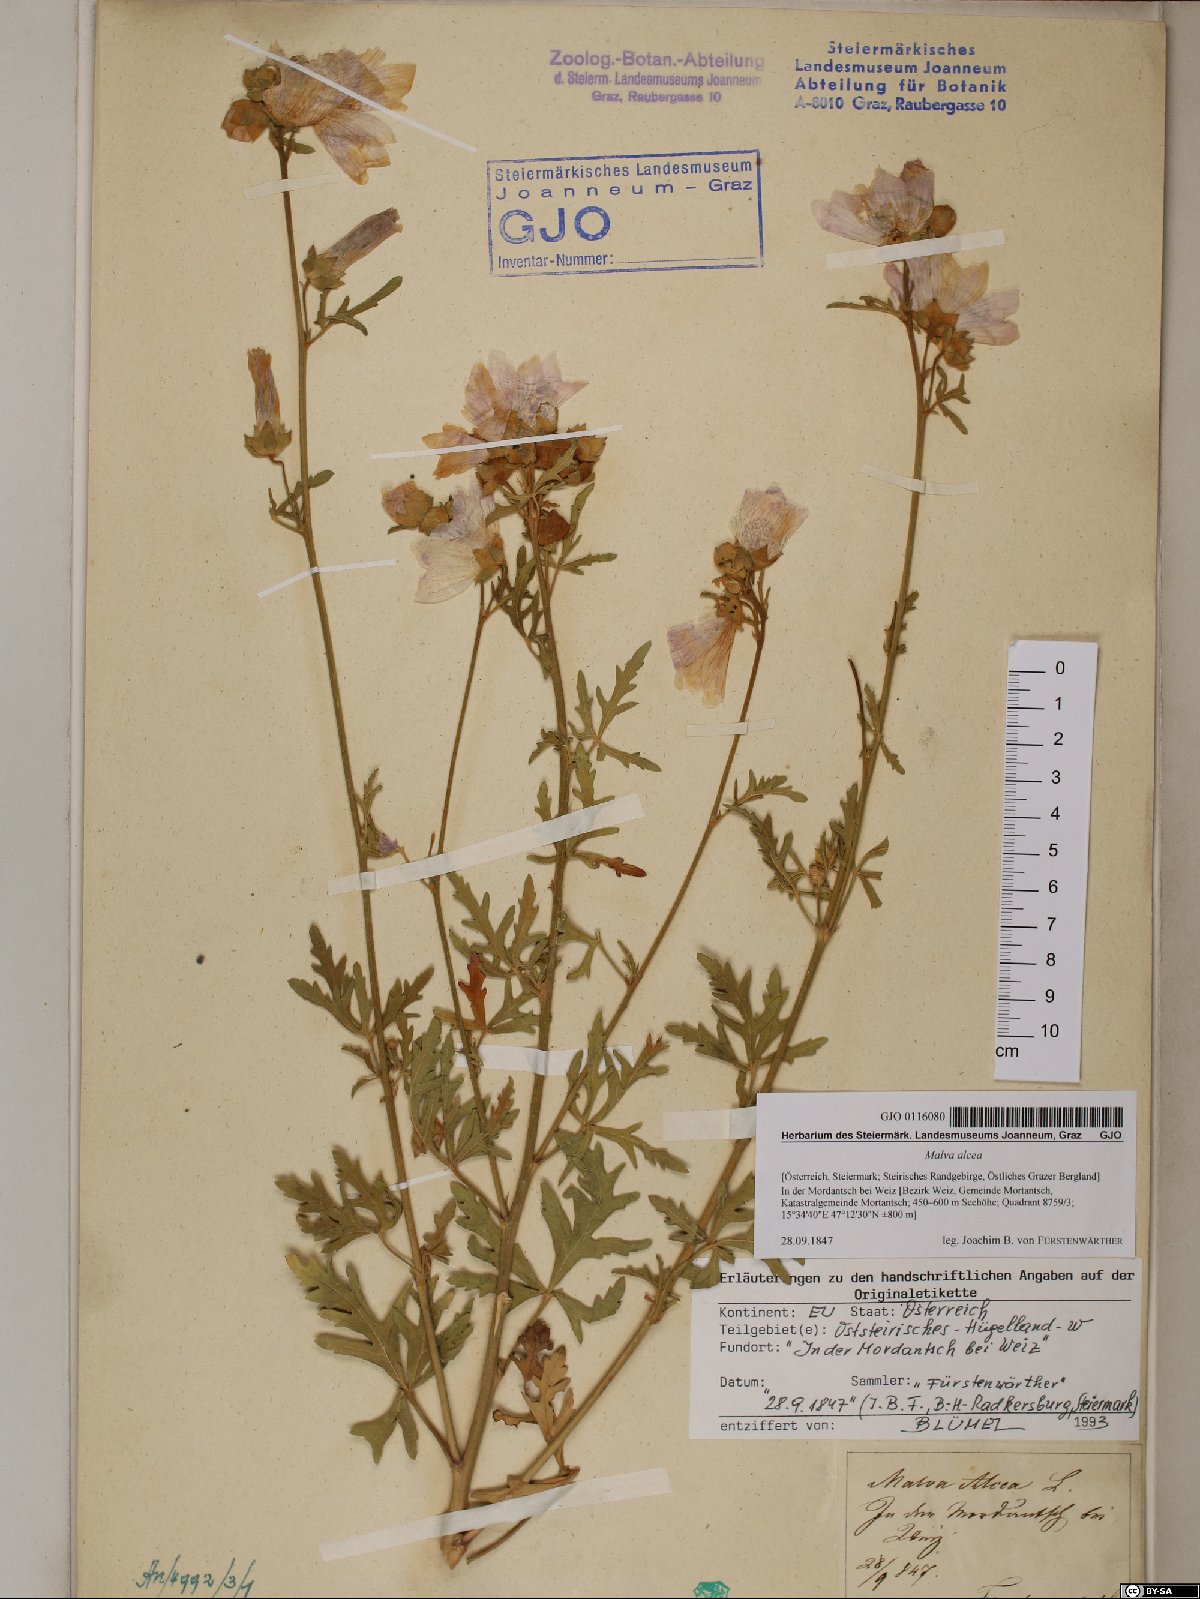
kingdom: Plantae
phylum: Tracheophyta
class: Magnoliopsida
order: Malvales
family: Malvaceae
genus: Malva
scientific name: Malva alcea
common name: Greater musk-mallow
